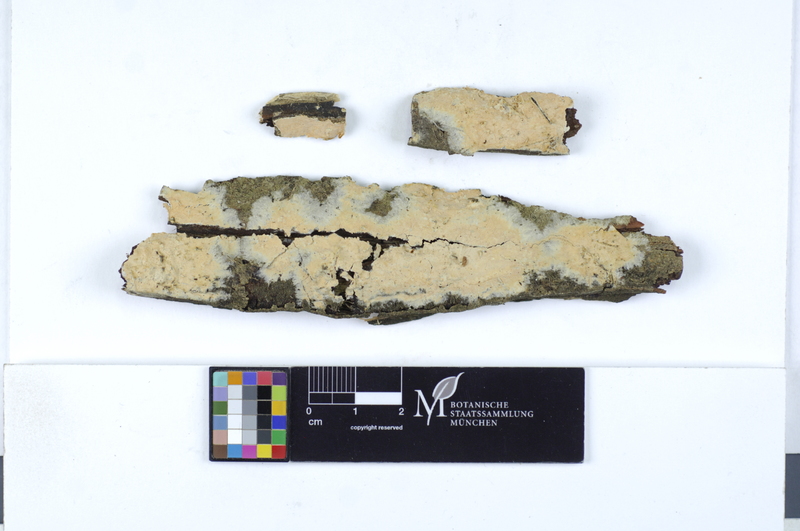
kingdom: Fungi
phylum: Basidiomycota
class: Agaricomycetes
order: Polyporales
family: Irpicaceae
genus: Crystallicutis
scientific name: Crystallicutis serpens
